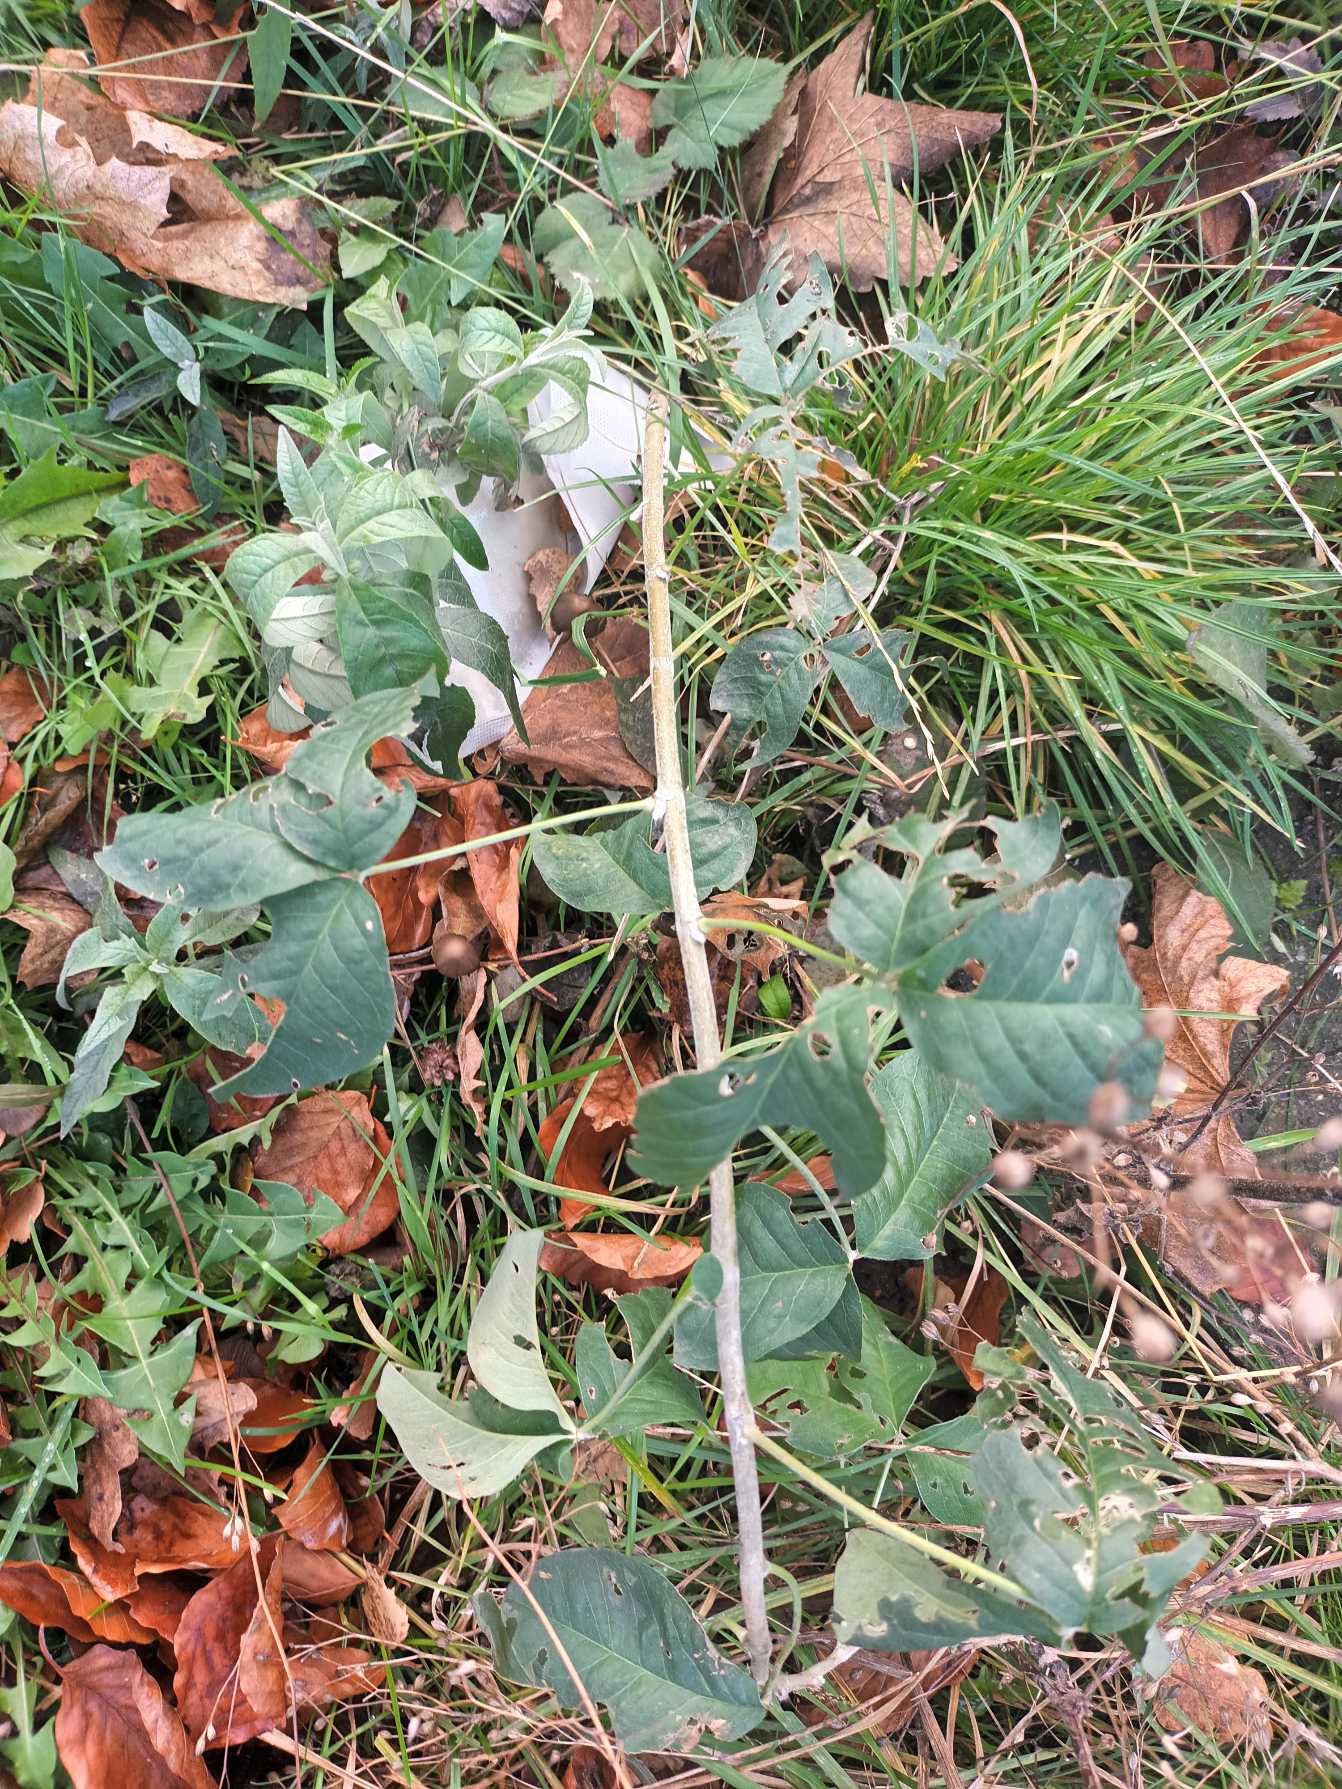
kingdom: Plantae
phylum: Tracheophyta
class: Magnoliopsida
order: Fabales
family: Fabaceae
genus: Laburnum
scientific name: Laburnum anagyroides
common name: Guldregn
